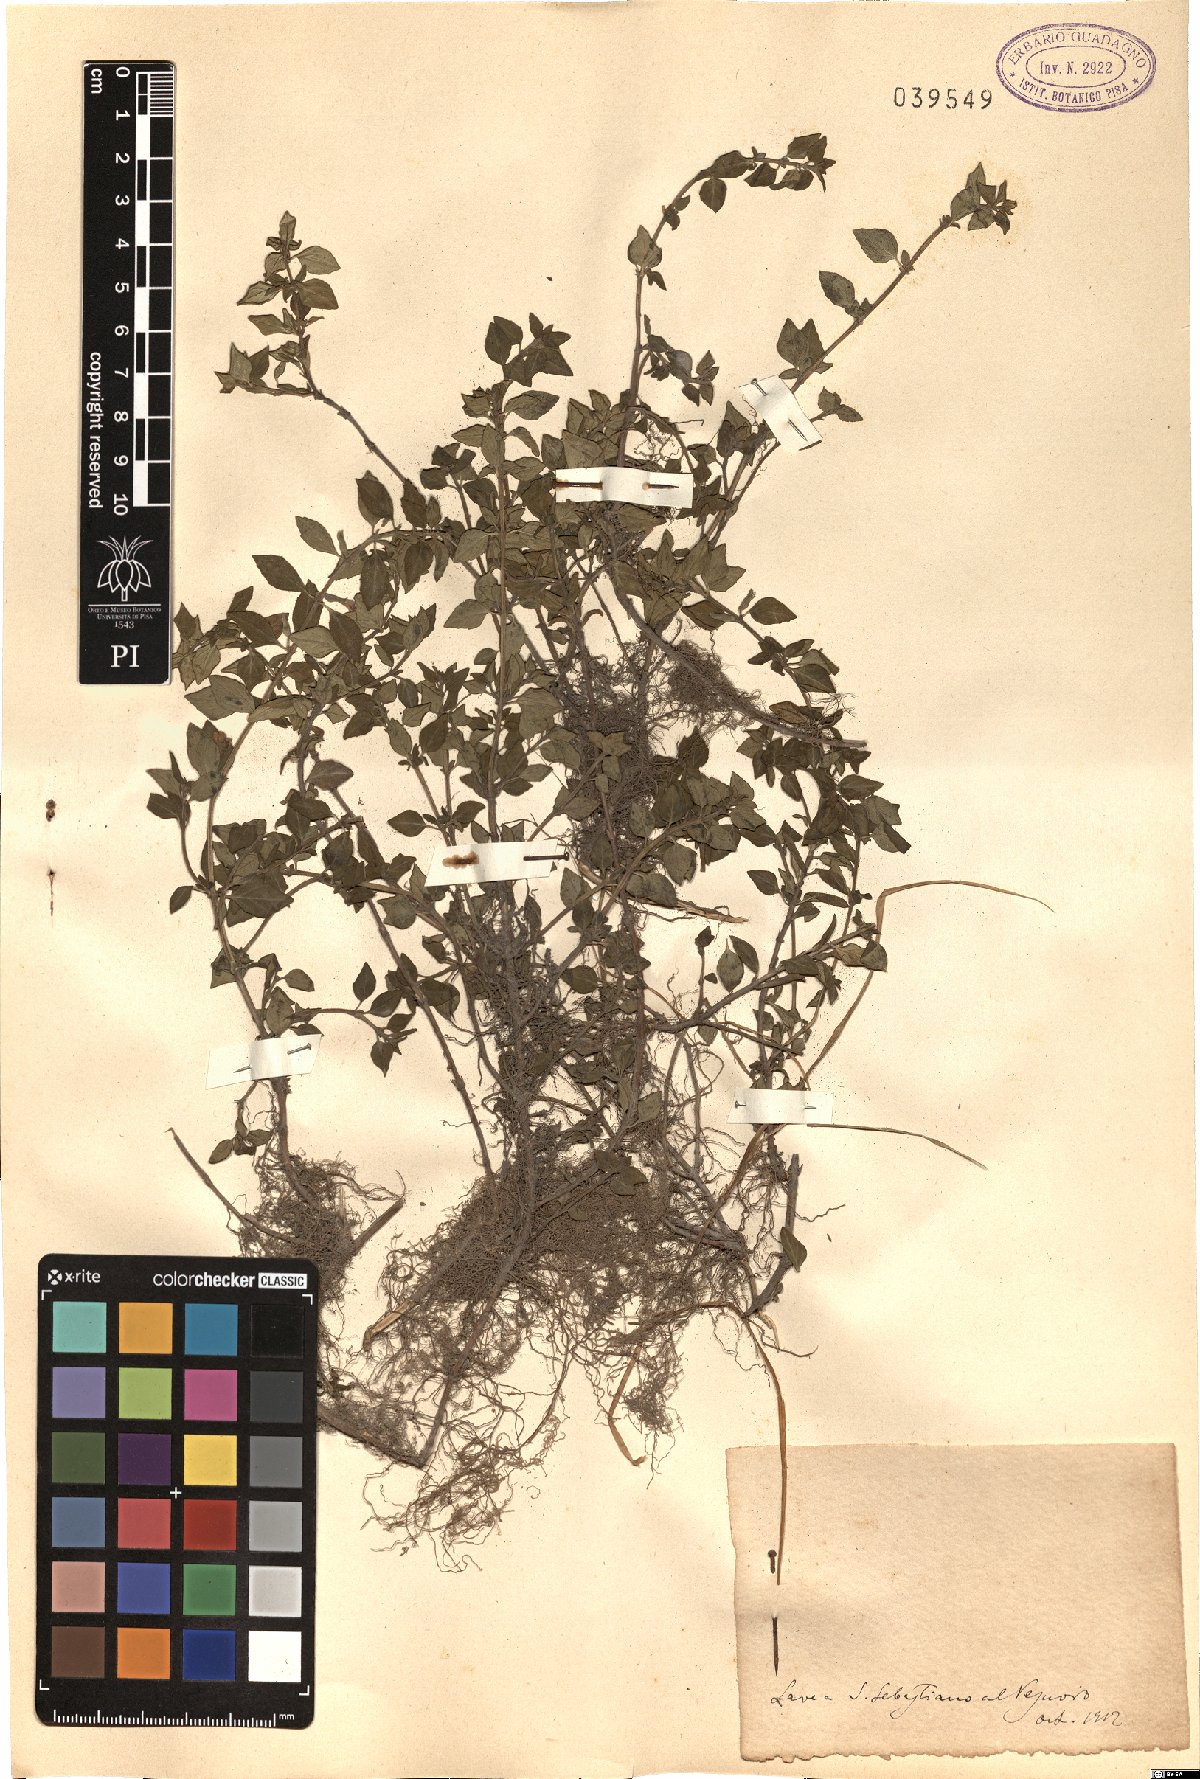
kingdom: Plantae
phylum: Tracheophyta
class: Magnoliopsida
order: Lamiales
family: Lamiaceae
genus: Calamintha
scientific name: Calamintha
